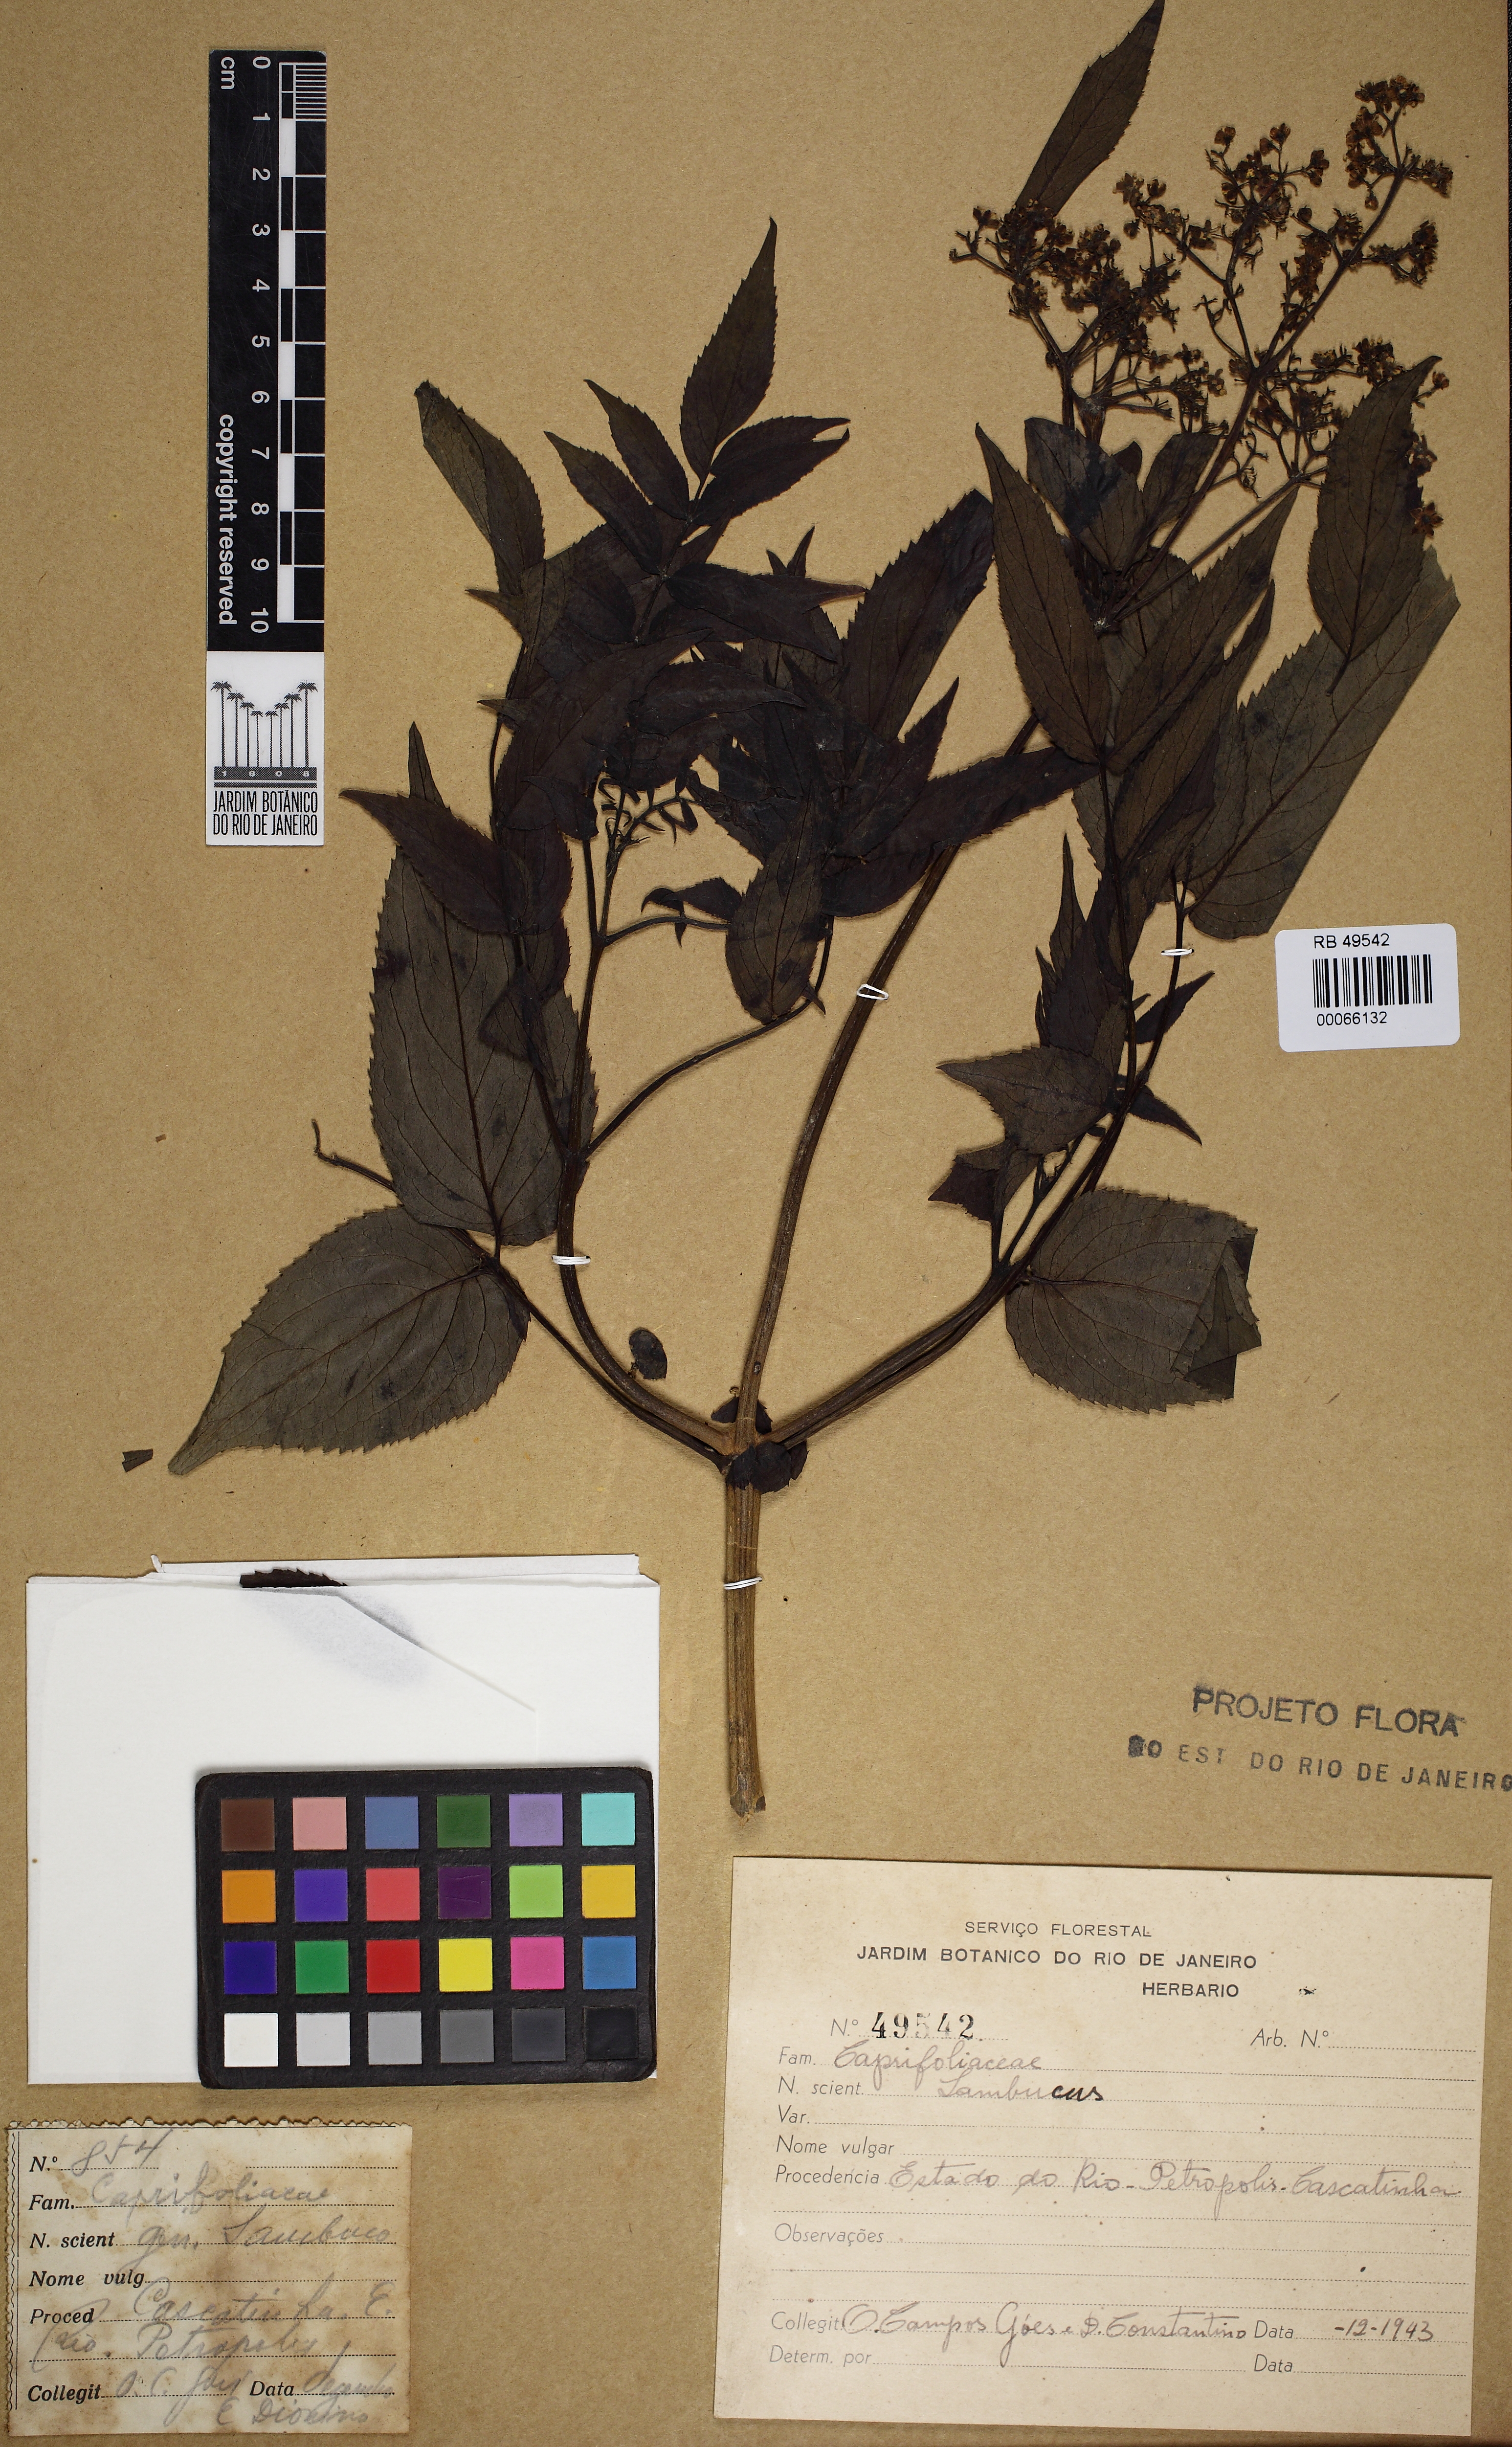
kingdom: Plantae
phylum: Tracheophyta
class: Magnoliopsida
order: Dipsacales
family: Viburnaceae
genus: Sambucus
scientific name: Sambucus
